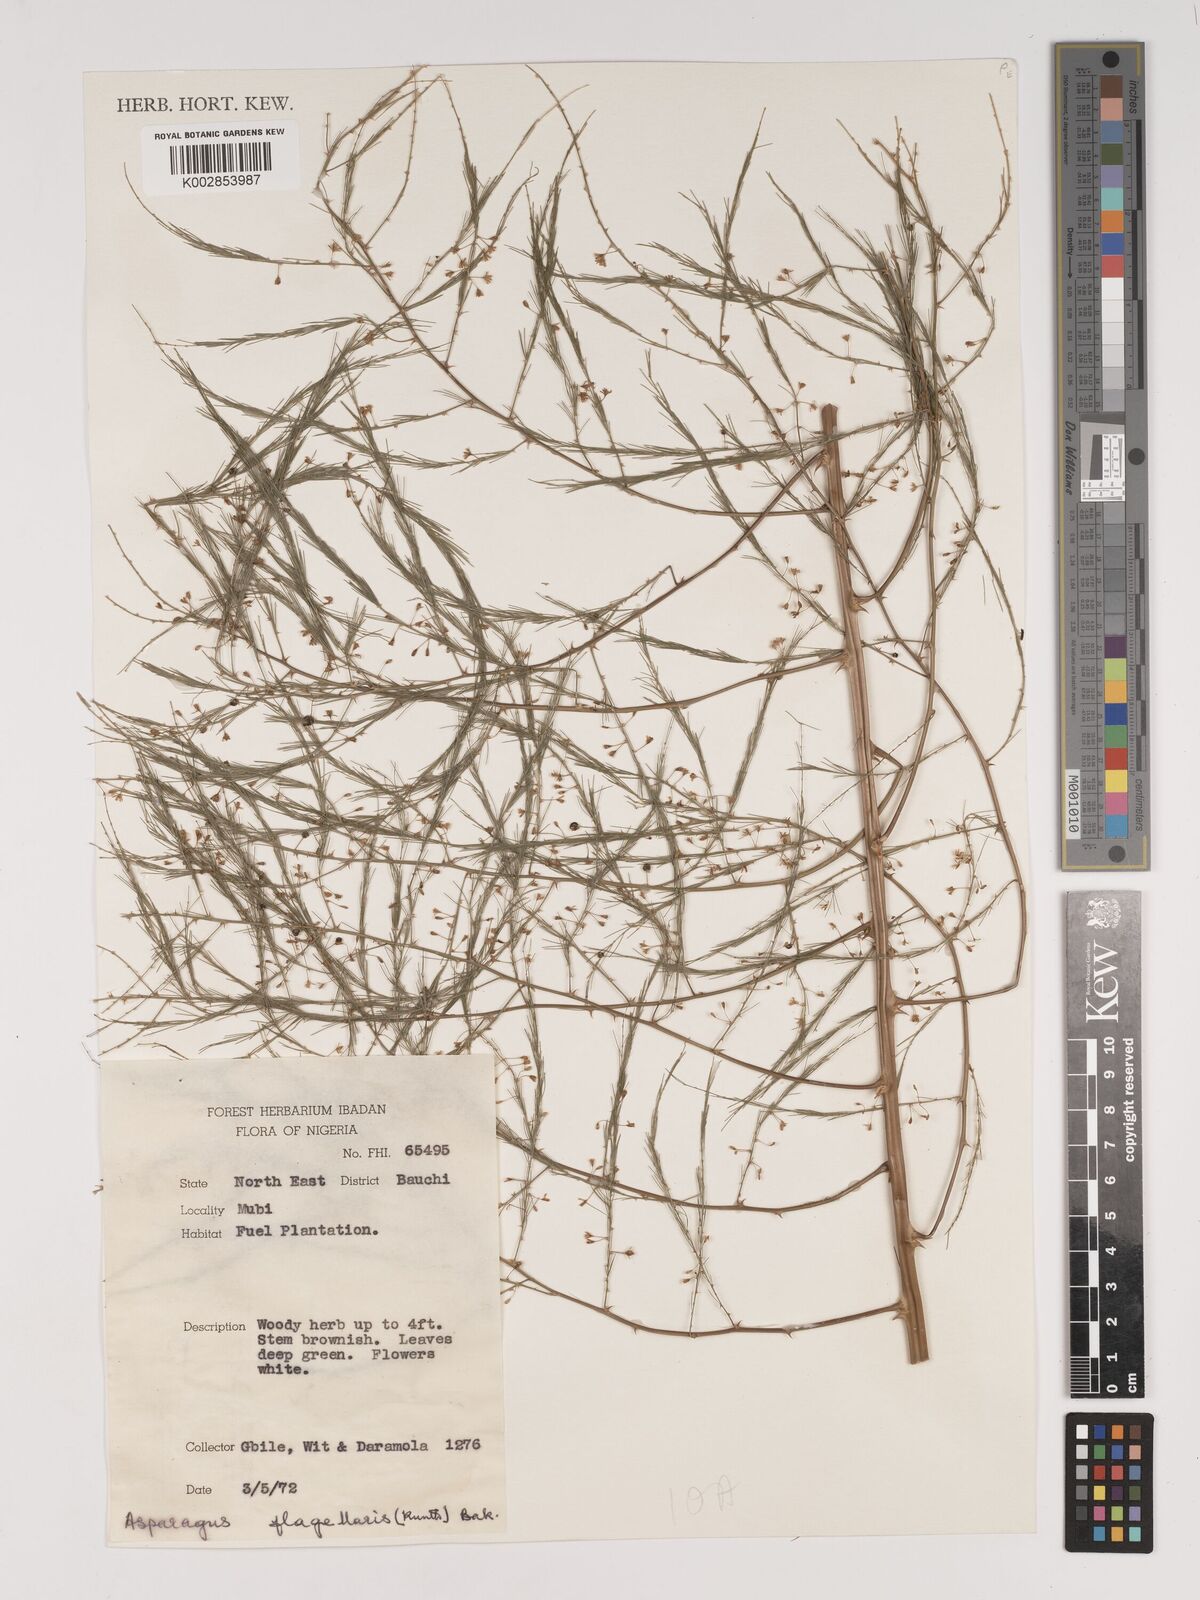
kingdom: Plantae
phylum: Tracheophyta
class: Liliopsida
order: Asparagales
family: Asparagaceae
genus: Asparagus
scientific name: Asparagus
